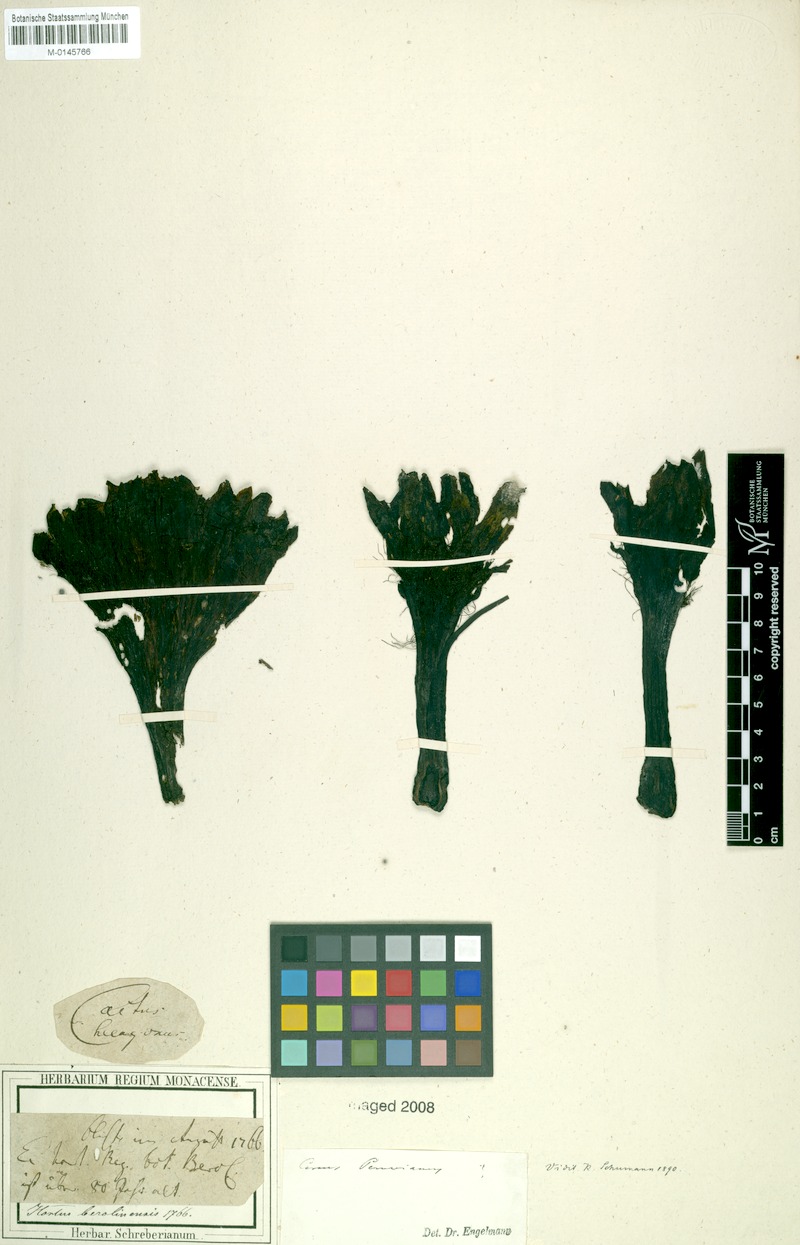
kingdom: Plantae
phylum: Tracheophyta
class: Magnoliopsida
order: Caryophyllales
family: Cactaceae
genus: Cereus
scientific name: Cereus repandus
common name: Sweetpotato cactus
